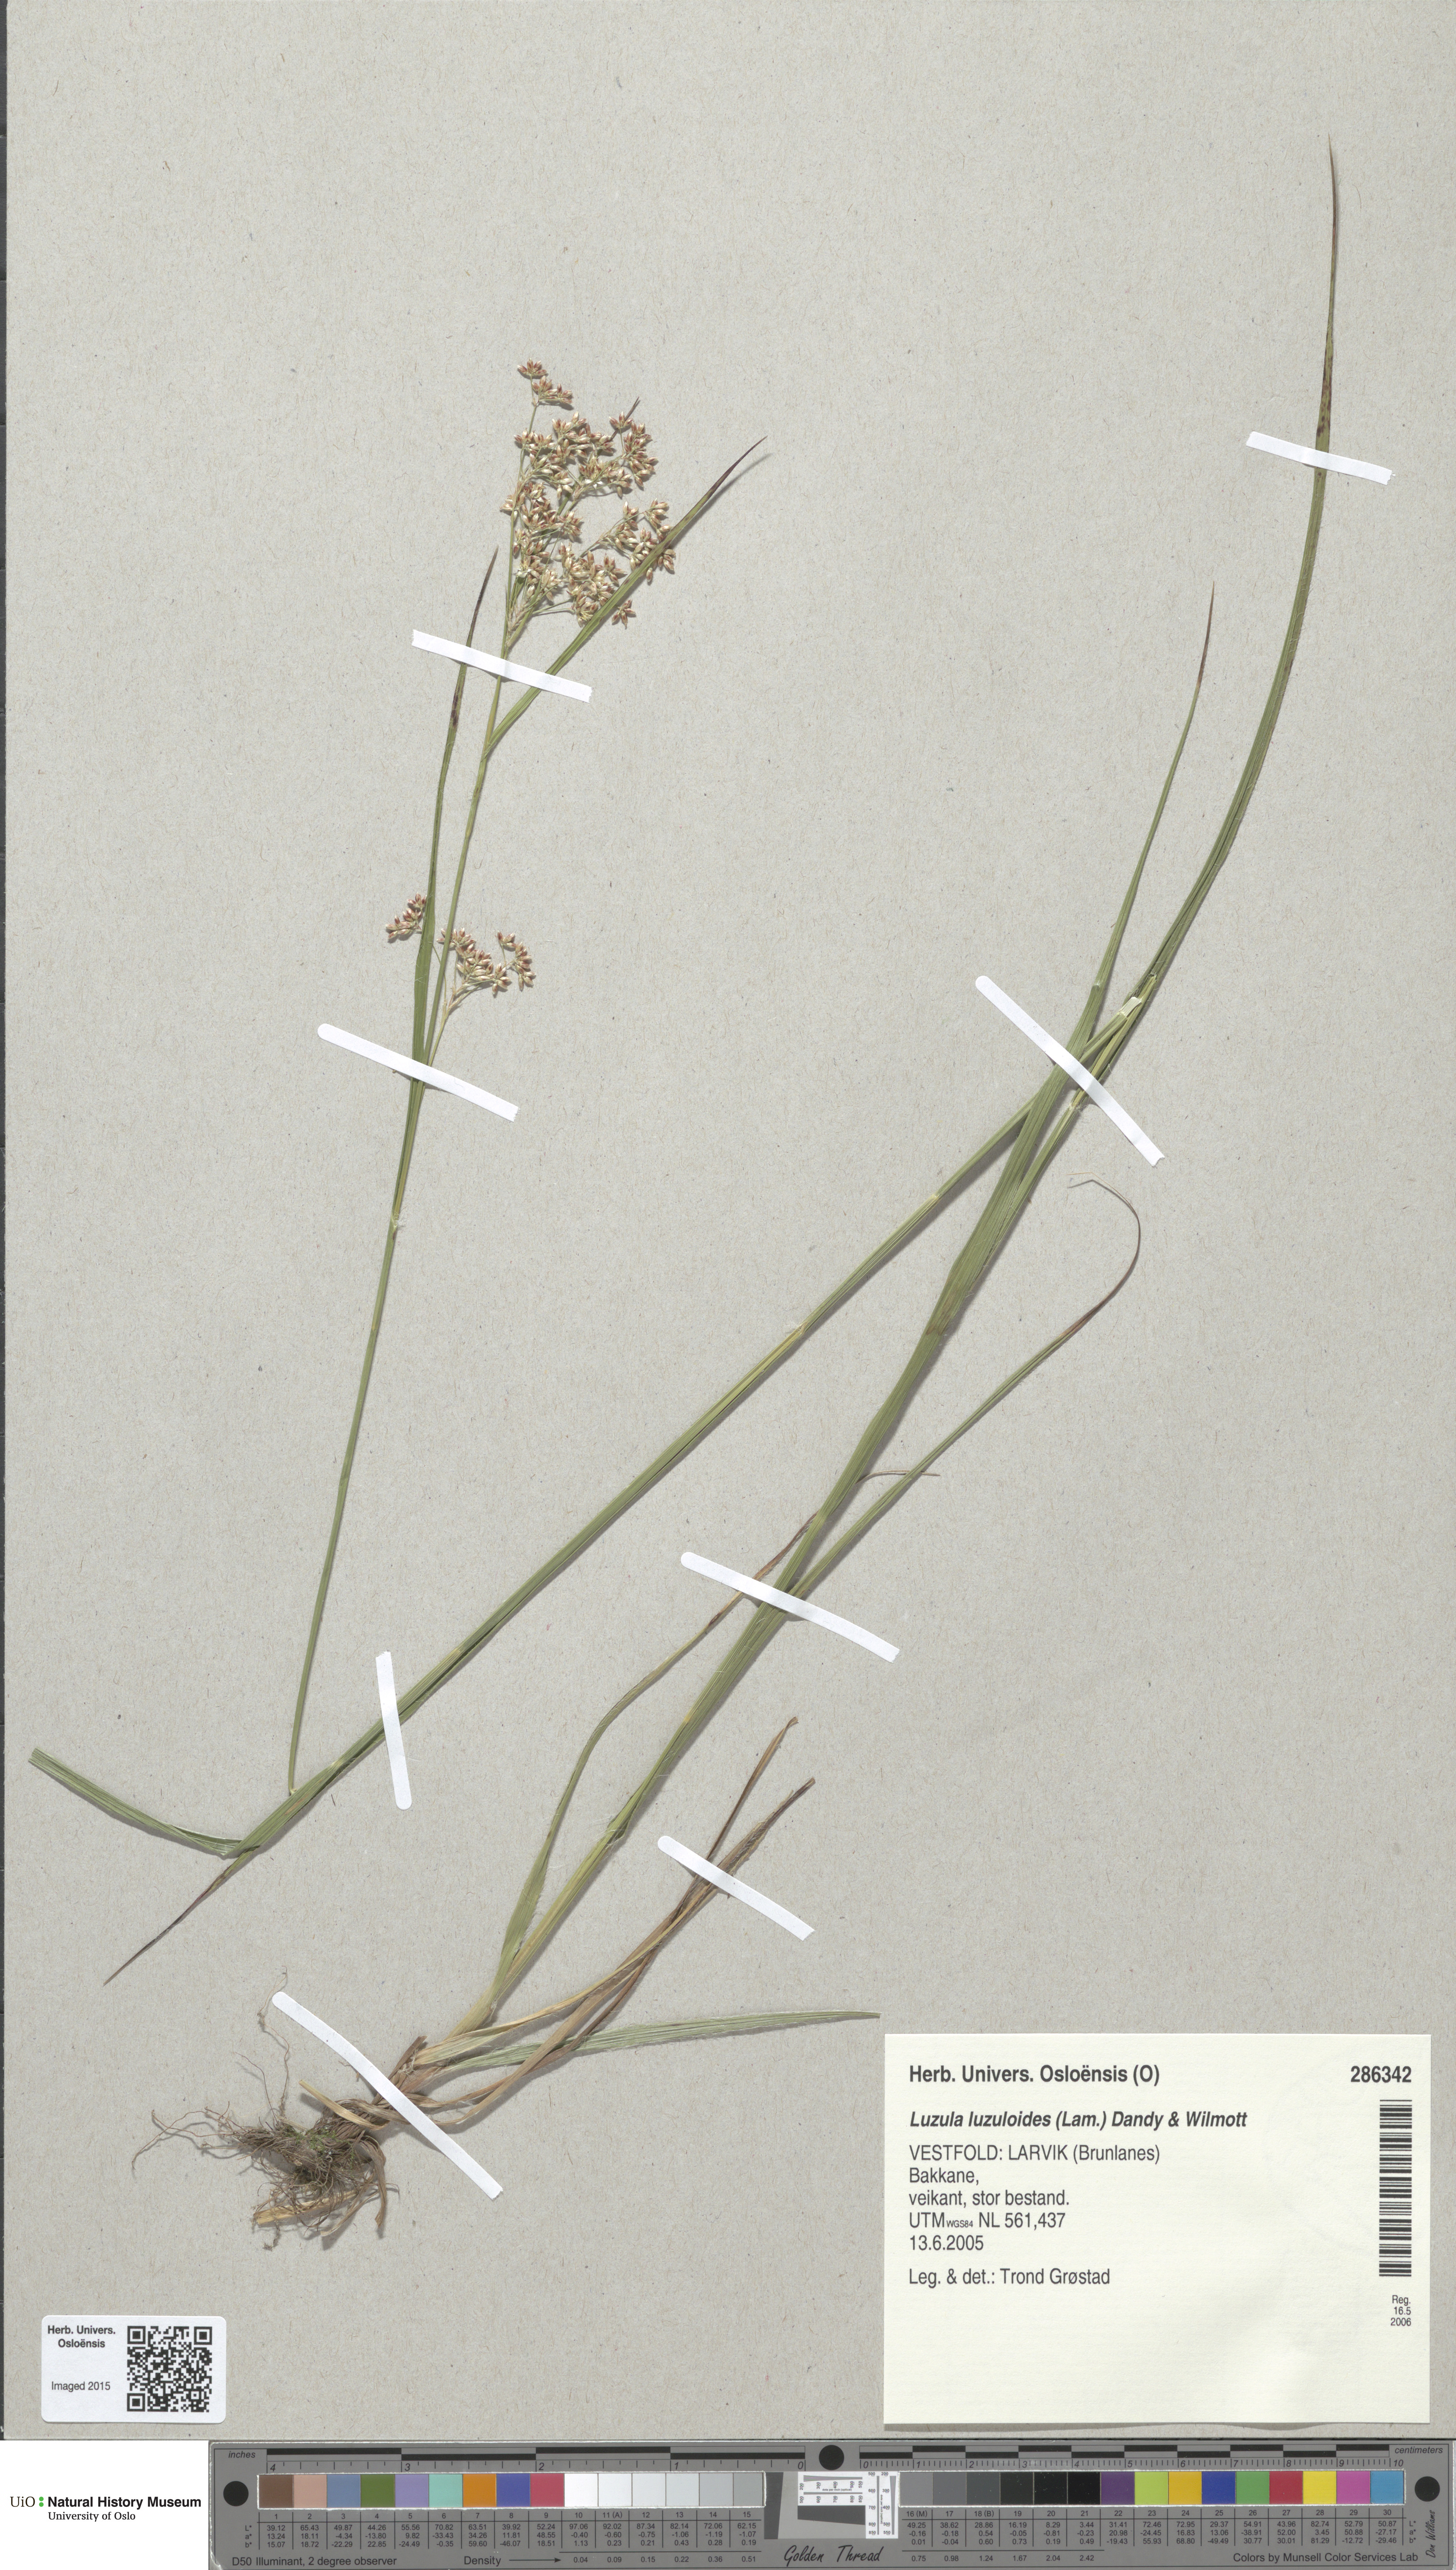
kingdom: Plantae
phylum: Tracheophyta
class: Liliopsida
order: Poales
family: Juncaceae
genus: Luzula
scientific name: Luzula luzuloides
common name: White wood-rush
